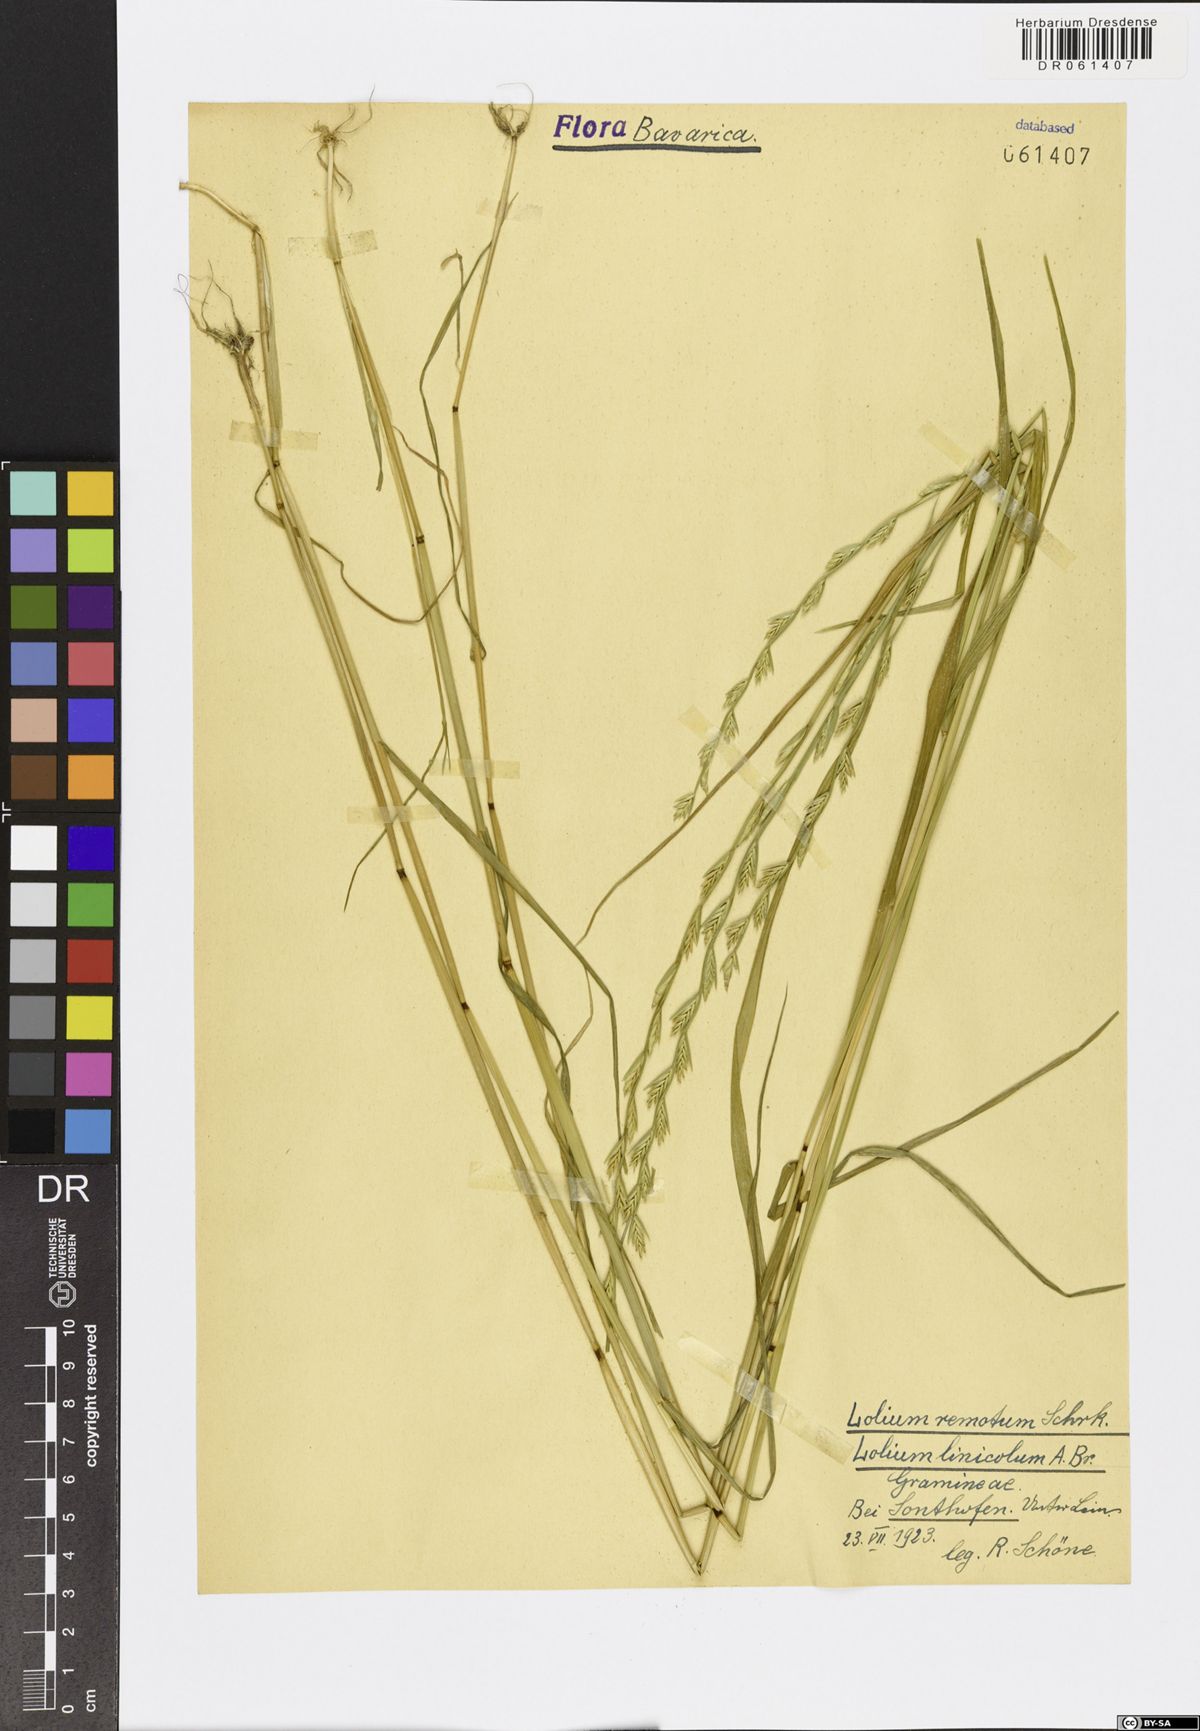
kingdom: Plantae
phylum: Tracheophyta
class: Liliopsida
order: Poales
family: Poaceae
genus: Lolium
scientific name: Lolium remotum
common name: Flaxfield rye-grass
